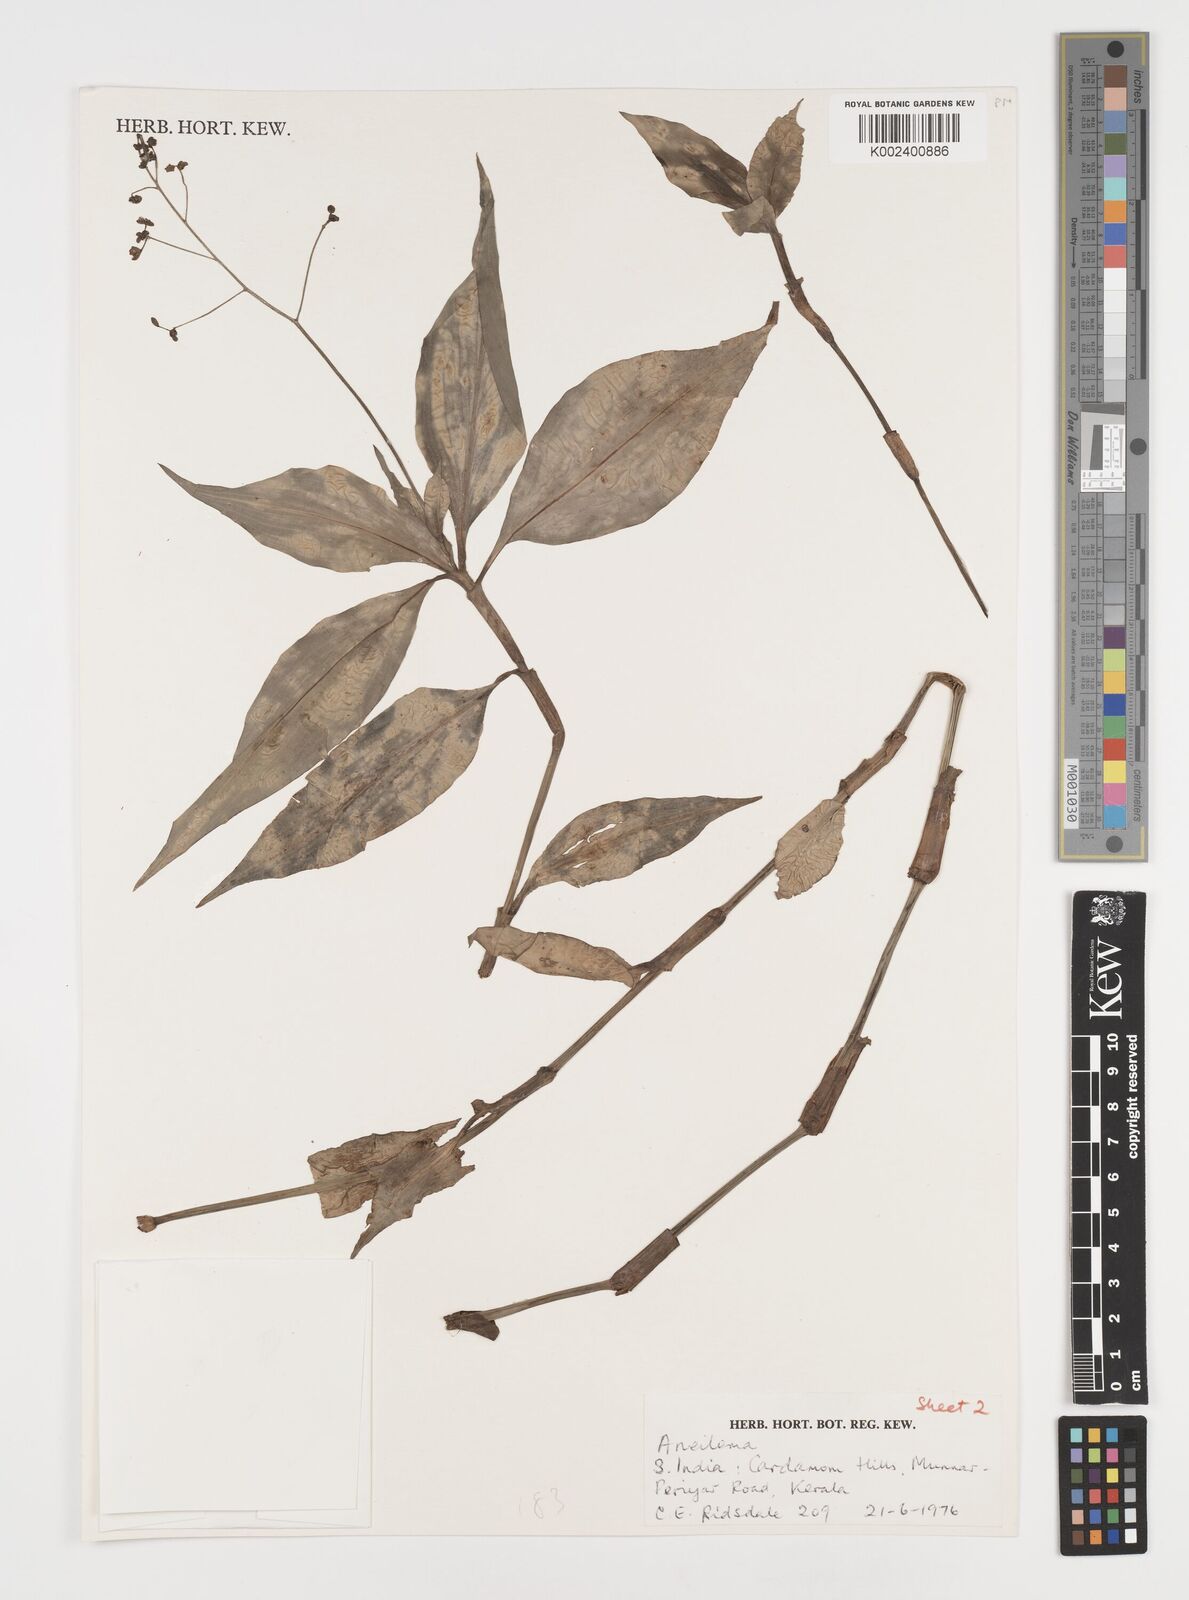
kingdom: Plantae
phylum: Tracheophyta
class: Liliopsida
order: Commelinales
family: Commelinaceae
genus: Dictyospermum
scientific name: Dictyospermum
